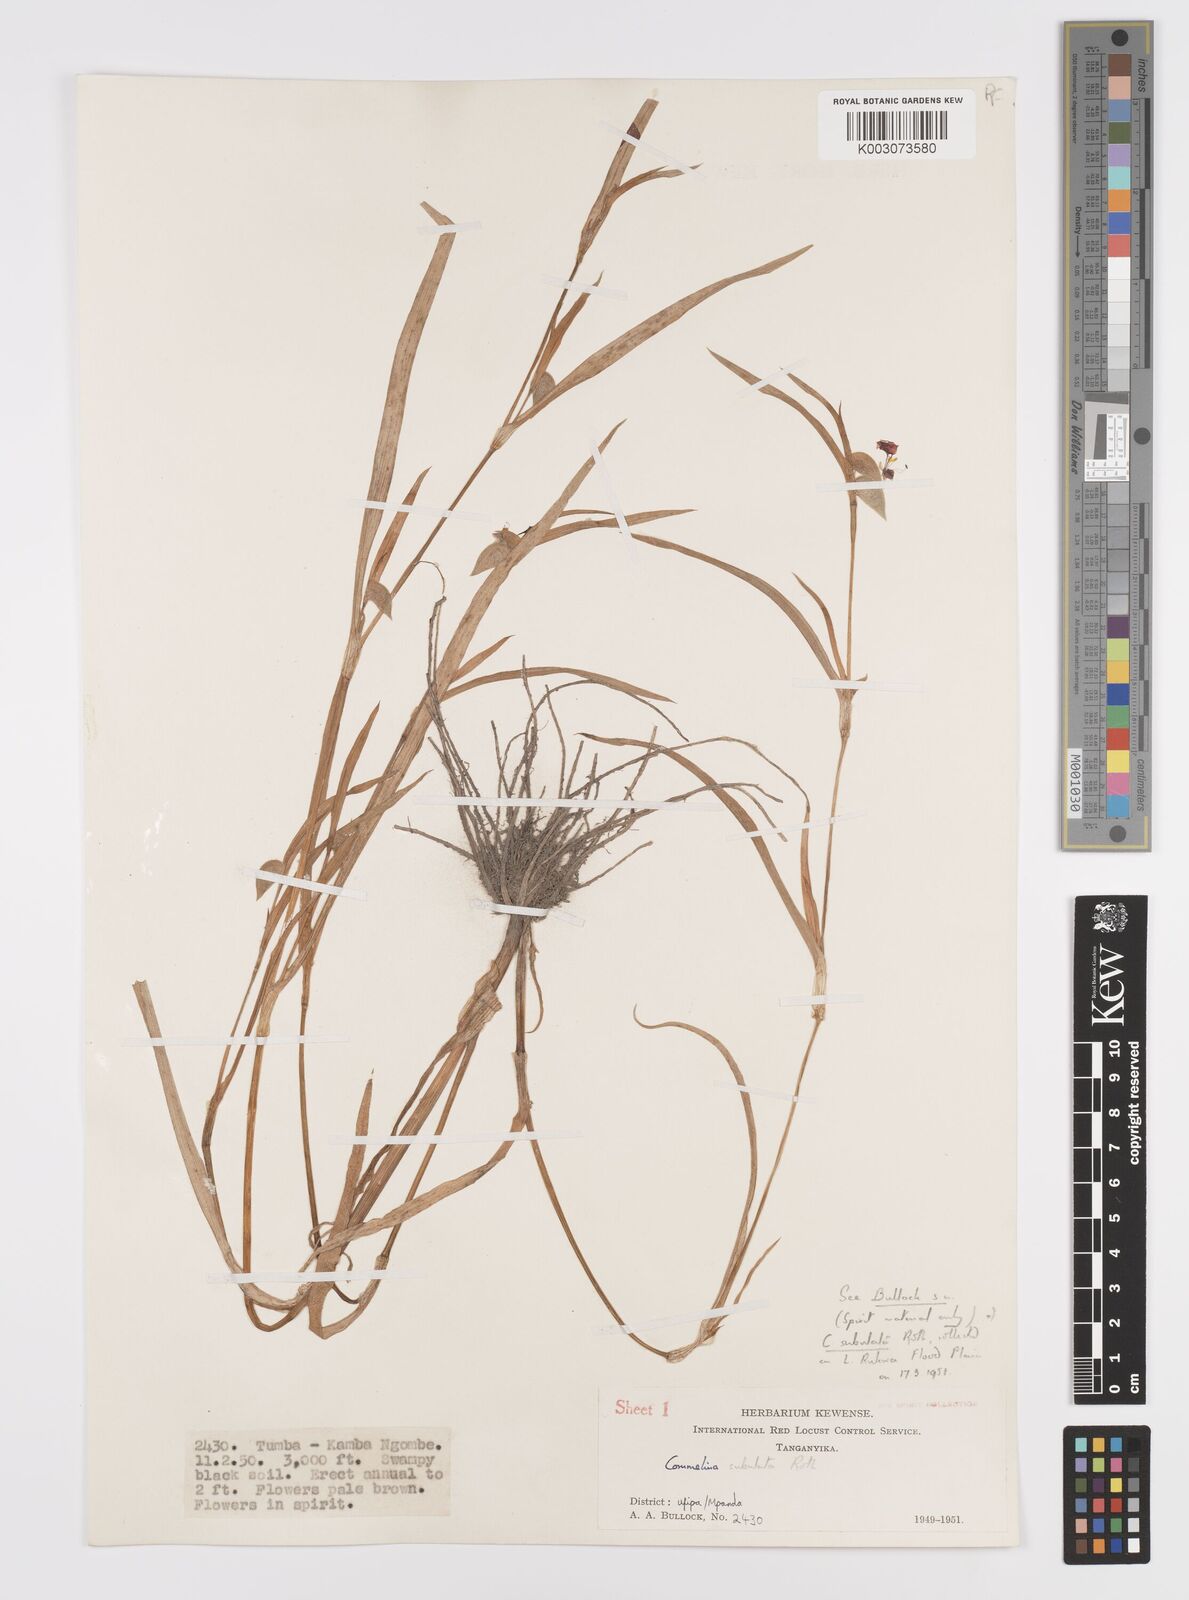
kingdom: Plantae
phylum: Tracheophyta
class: Liliopsida
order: Commelinales
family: Commelinaceae
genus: Commelina
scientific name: Commelina subulata
